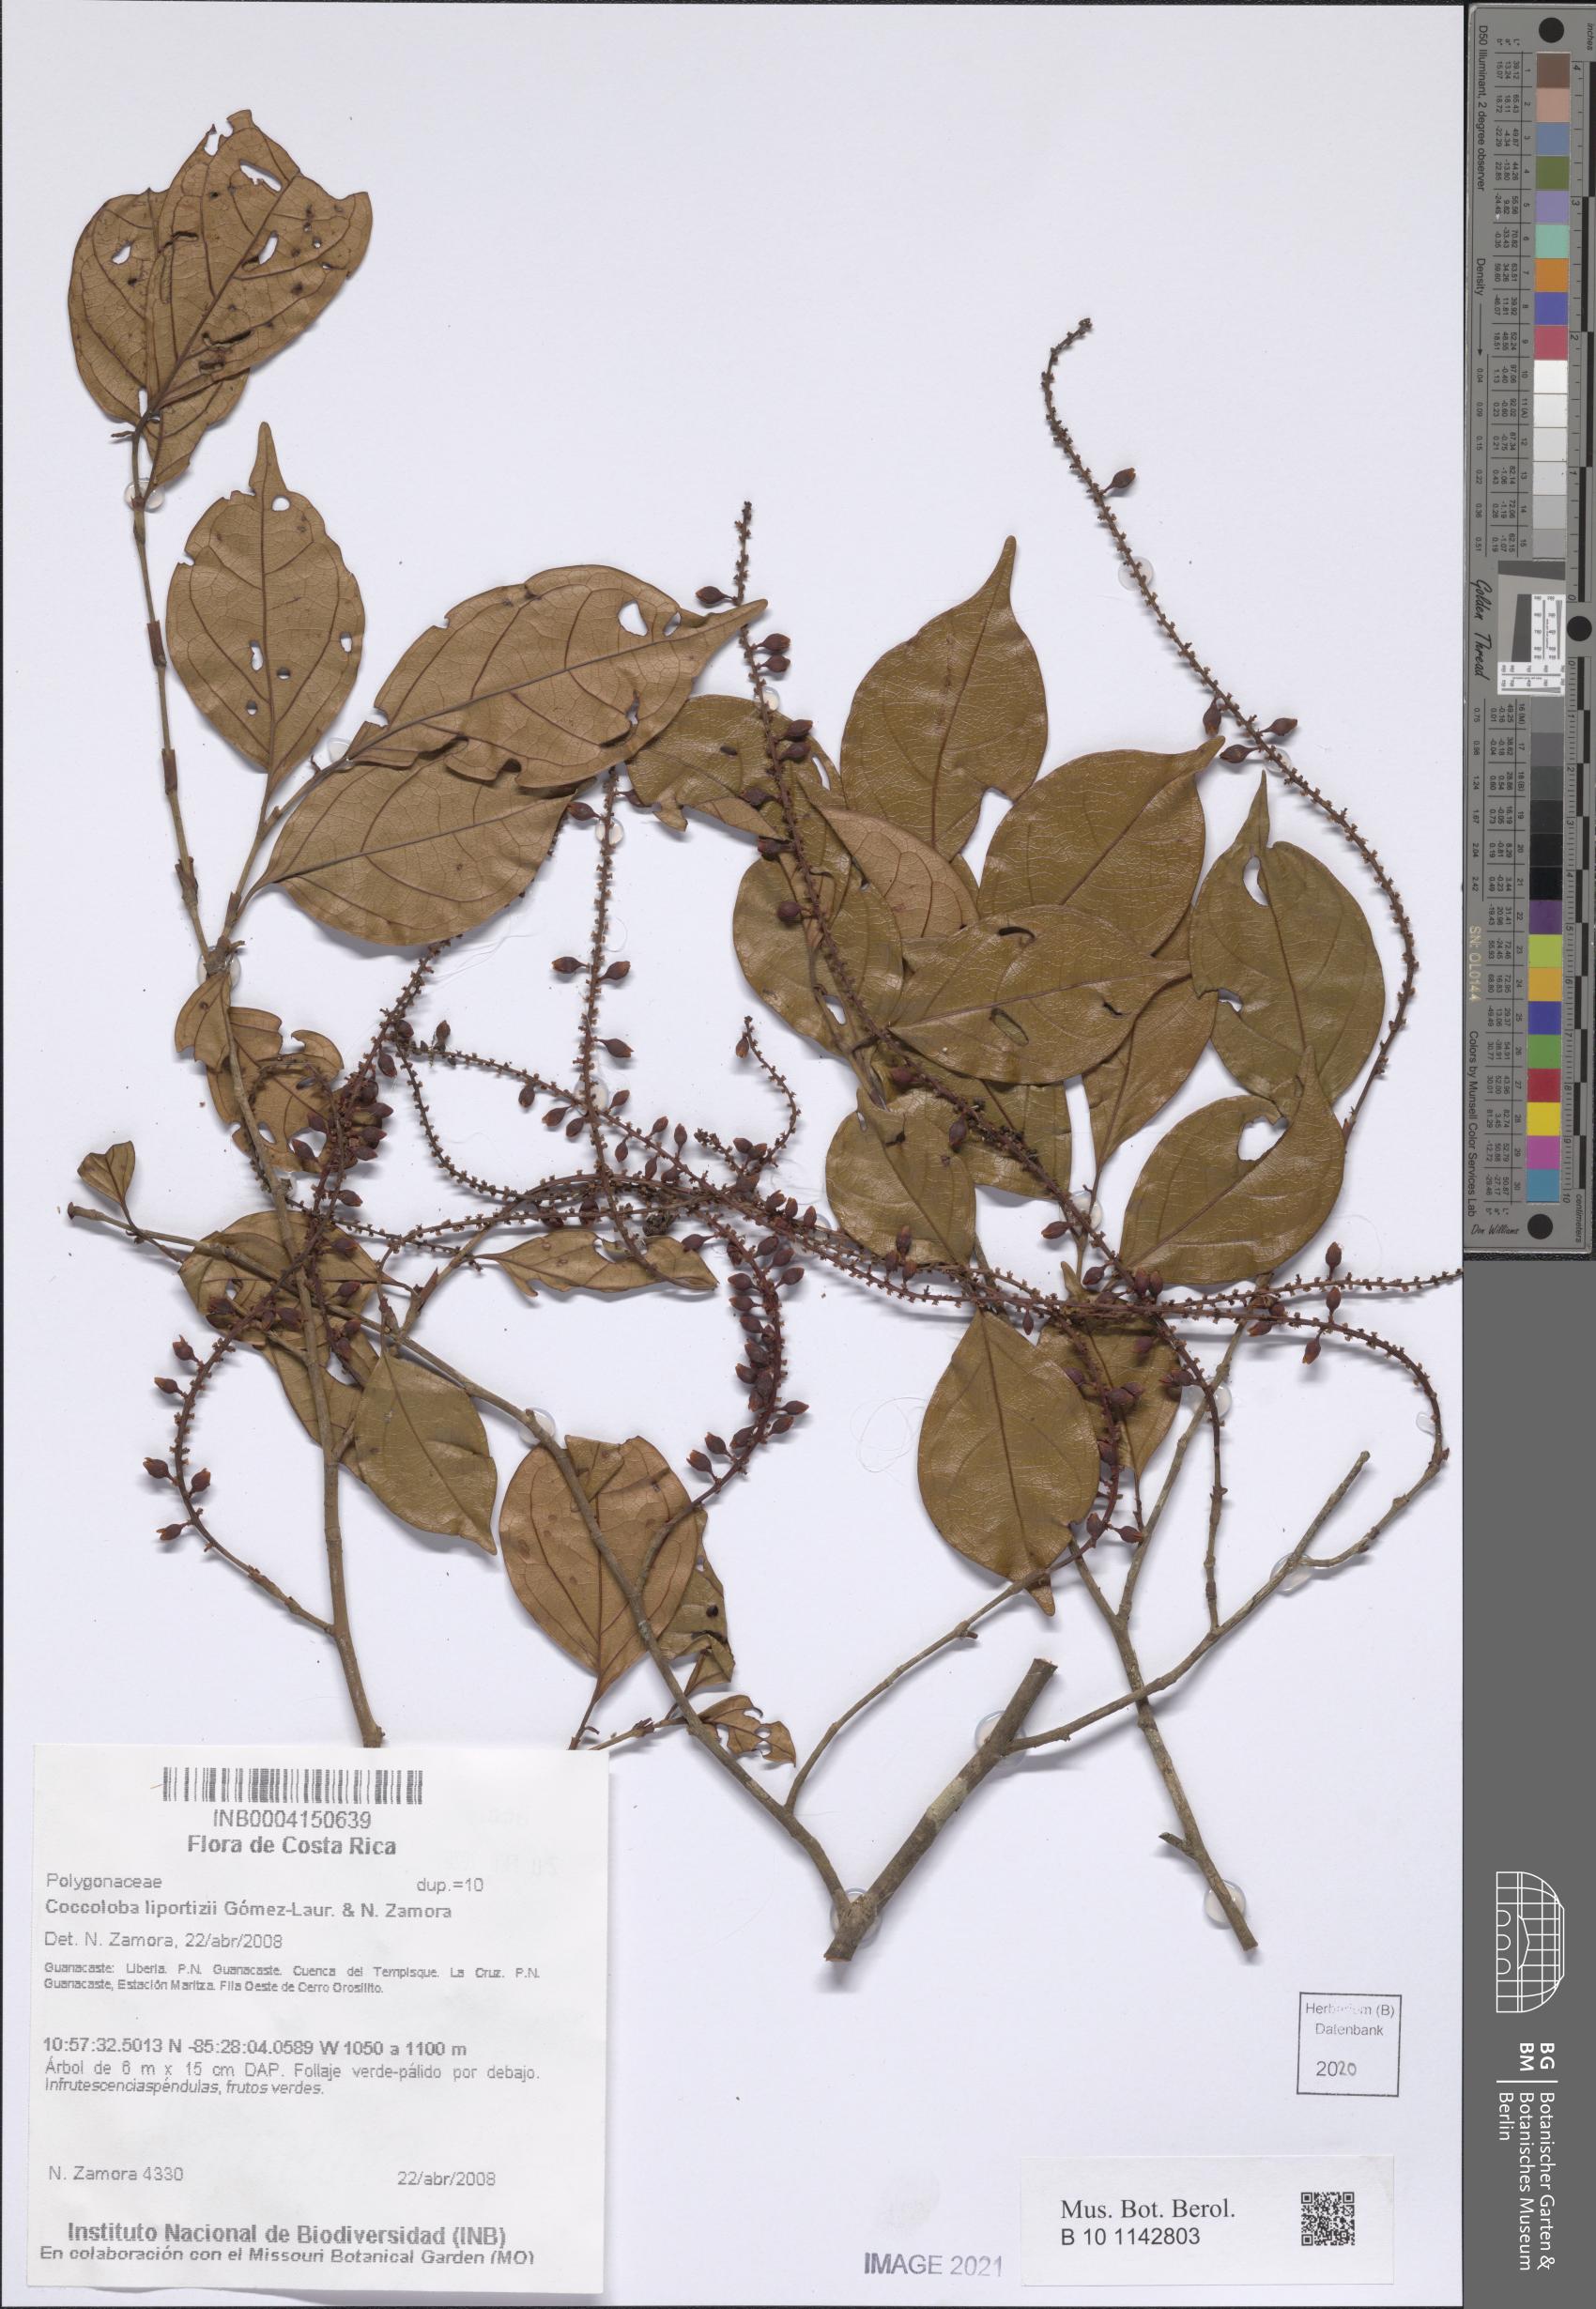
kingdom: Plantae
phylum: Tracheophyta
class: Magnoliopsida
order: Caryophyllales
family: Polygonaceae
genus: Coccoloba
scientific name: Coccoloba liportizii
